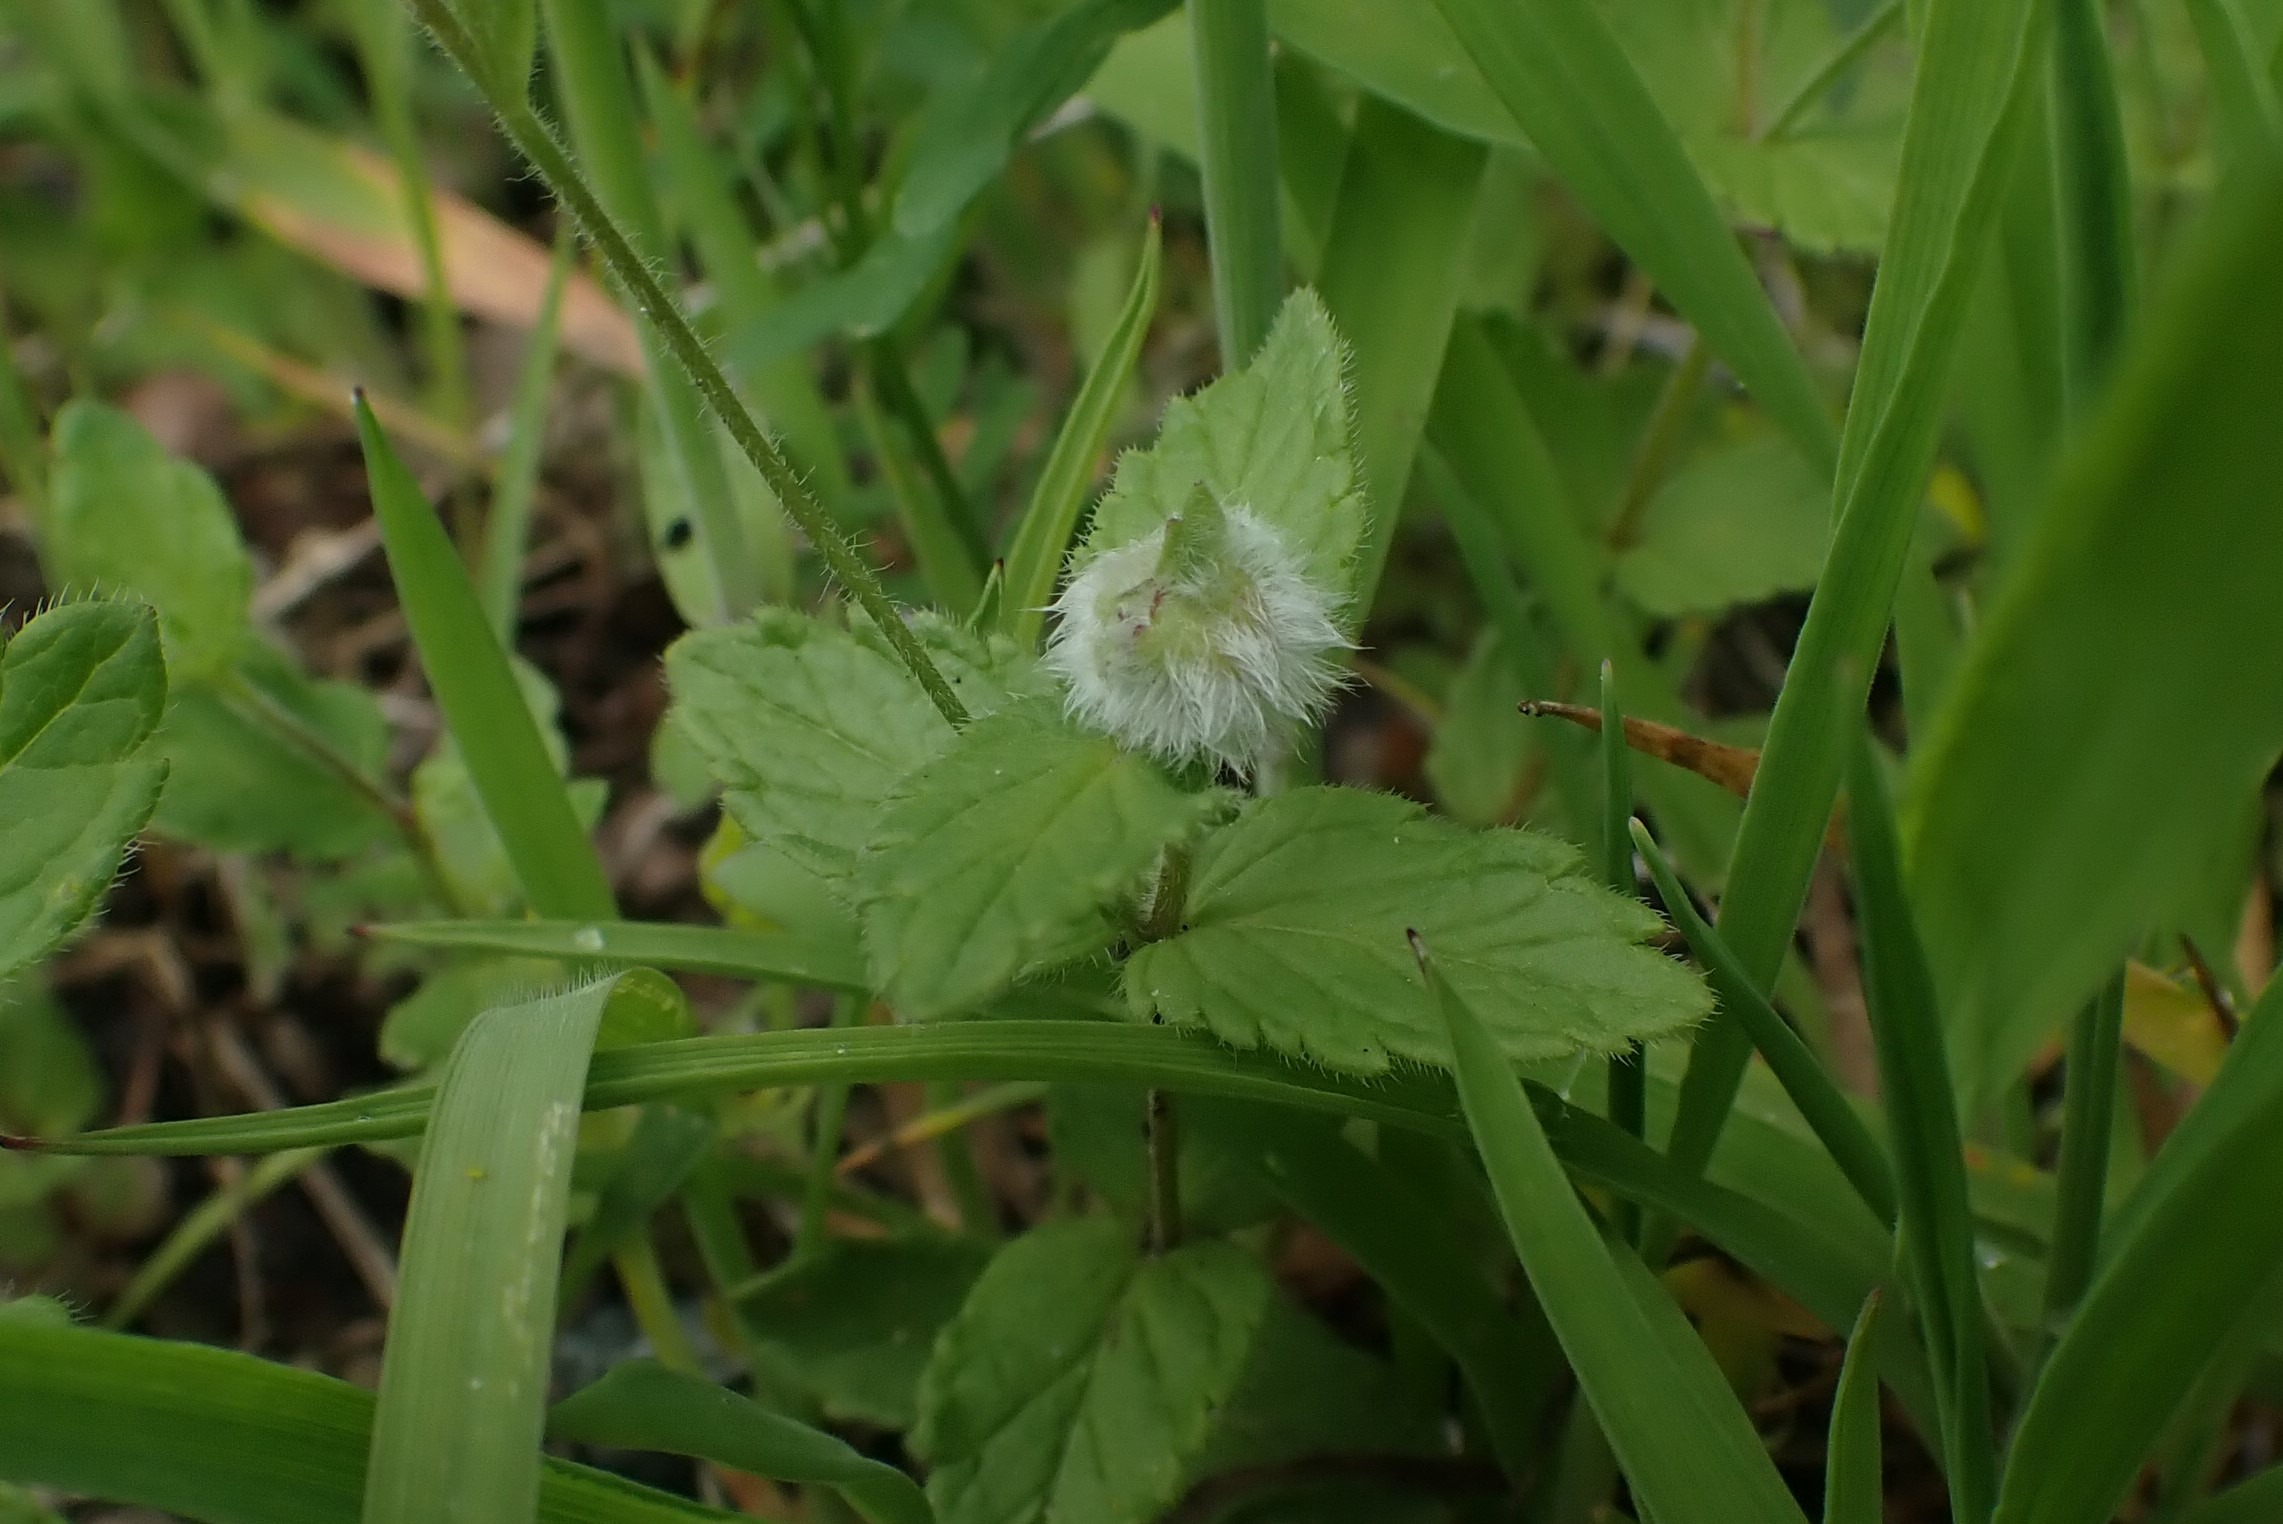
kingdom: Animalia
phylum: Arthropoda
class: Insecta
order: Diptera
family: Cecidomyiidae
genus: Jaapiella
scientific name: Jaapiella veronicae
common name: Ærenprisgalmyg
